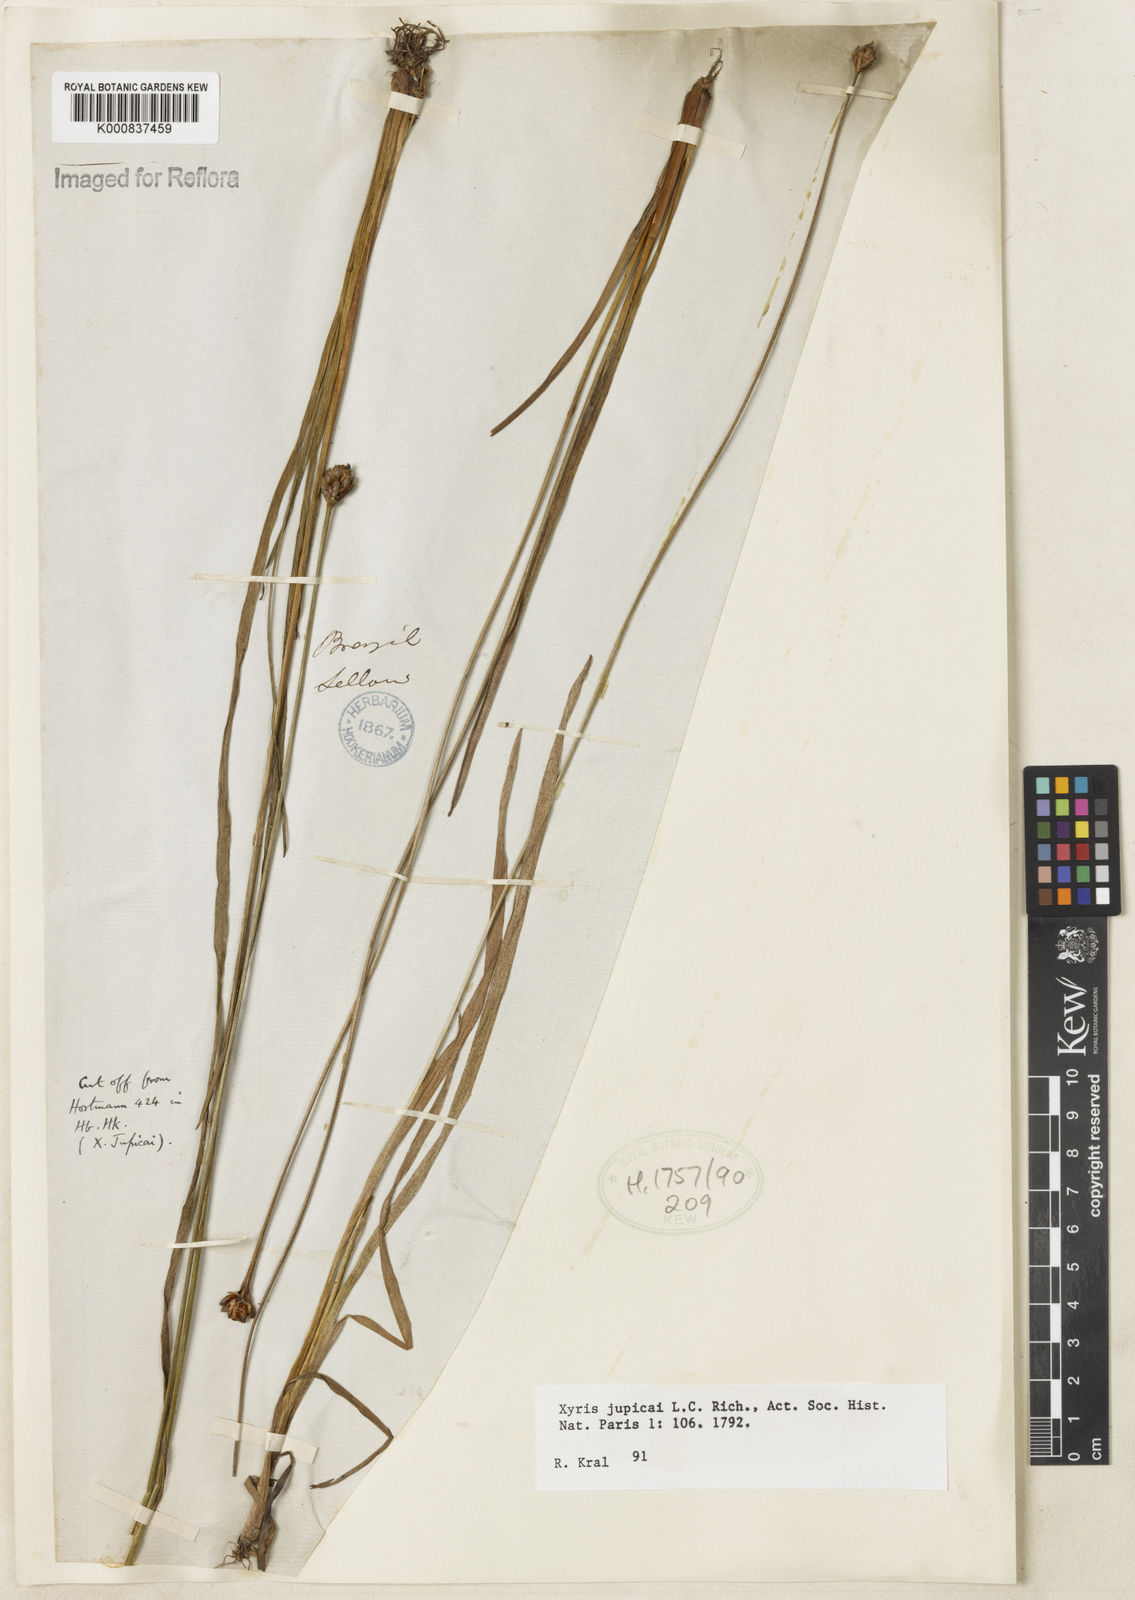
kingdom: Plantae
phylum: Tracheophyta
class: Liliopsida
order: Poales
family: Xyridaceae
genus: Xyris
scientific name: Xyris jupicai
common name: Richard's yelloweyed grass
